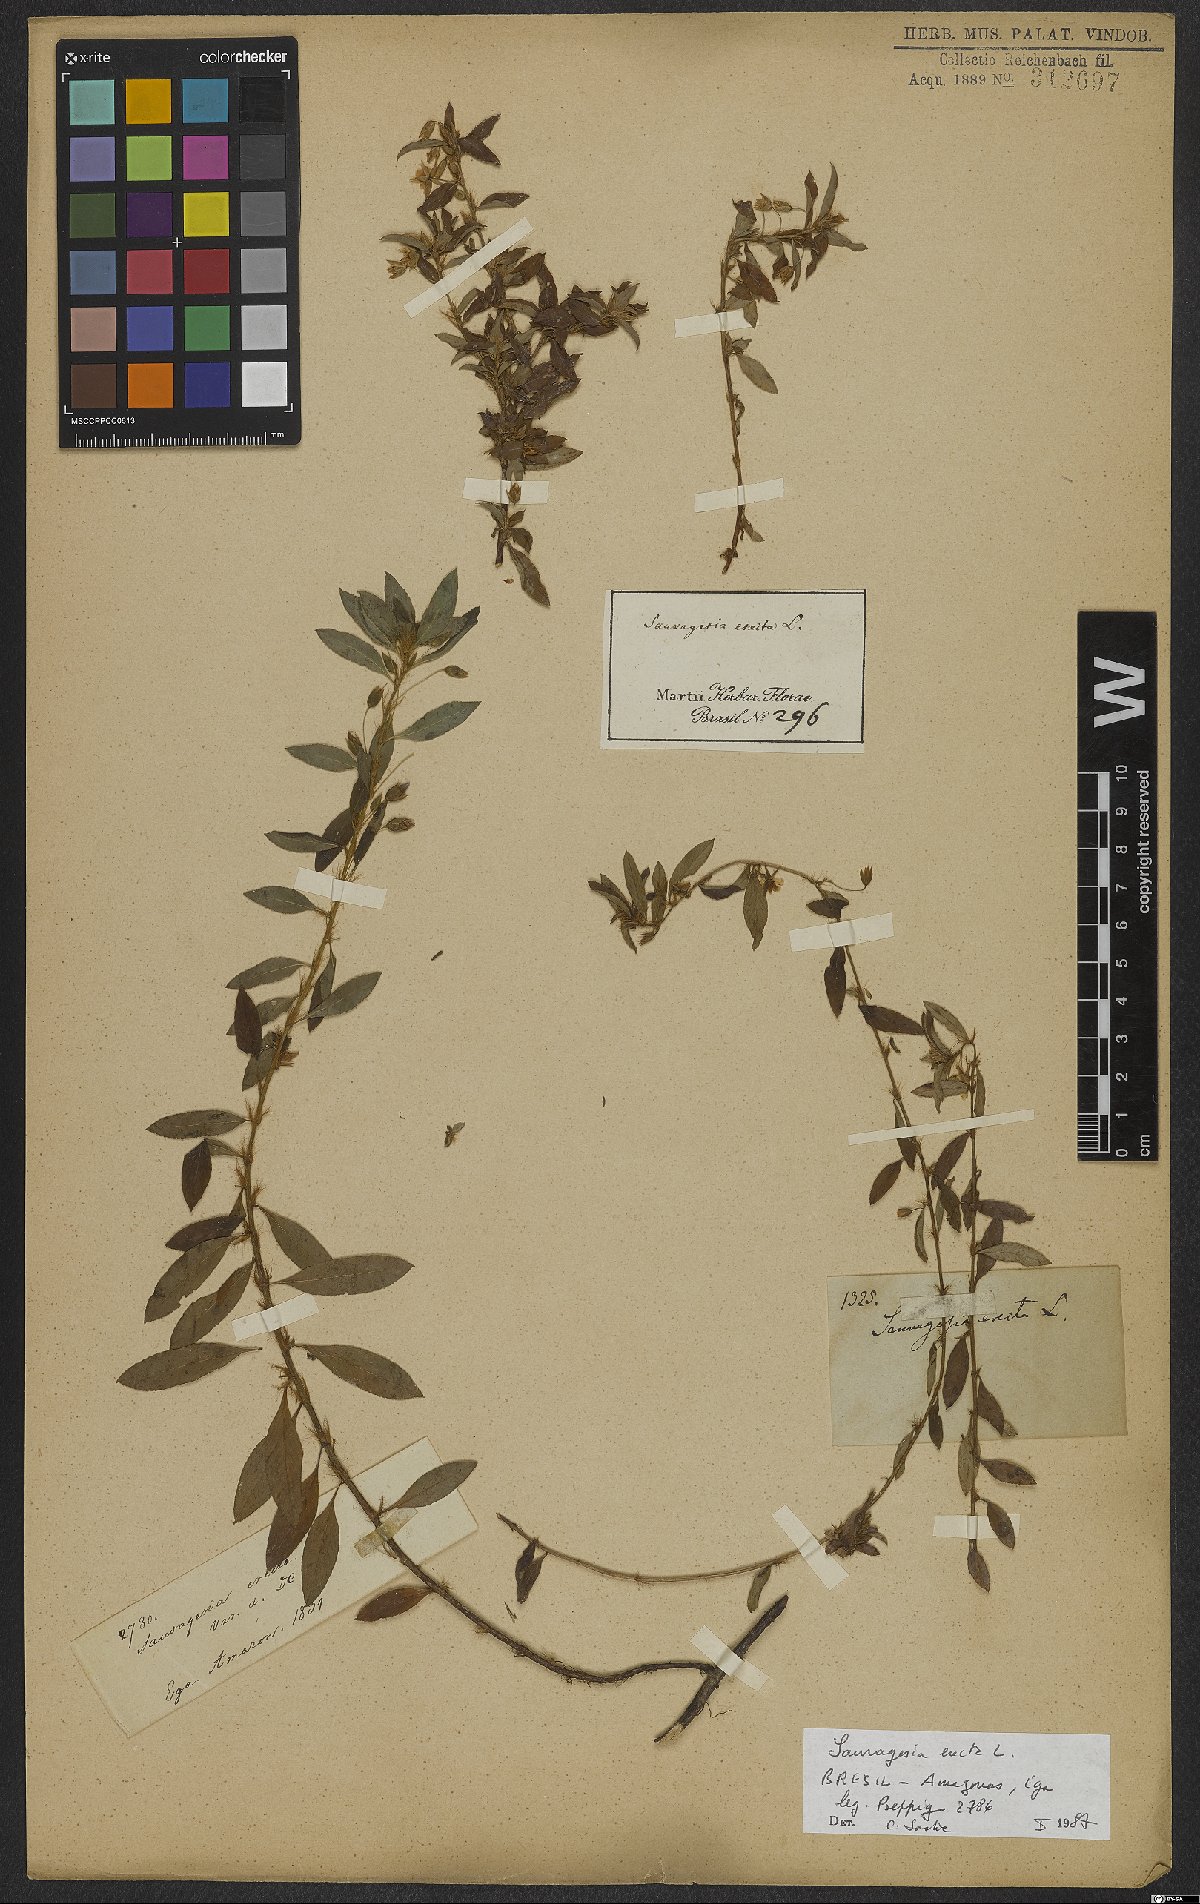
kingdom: Plantae
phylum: Tracheophyta
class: Magnoliopsida
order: Malpighiales
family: Ochnaceae
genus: Sauvagesia
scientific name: Sauvagesia erecta
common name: Creole tea
